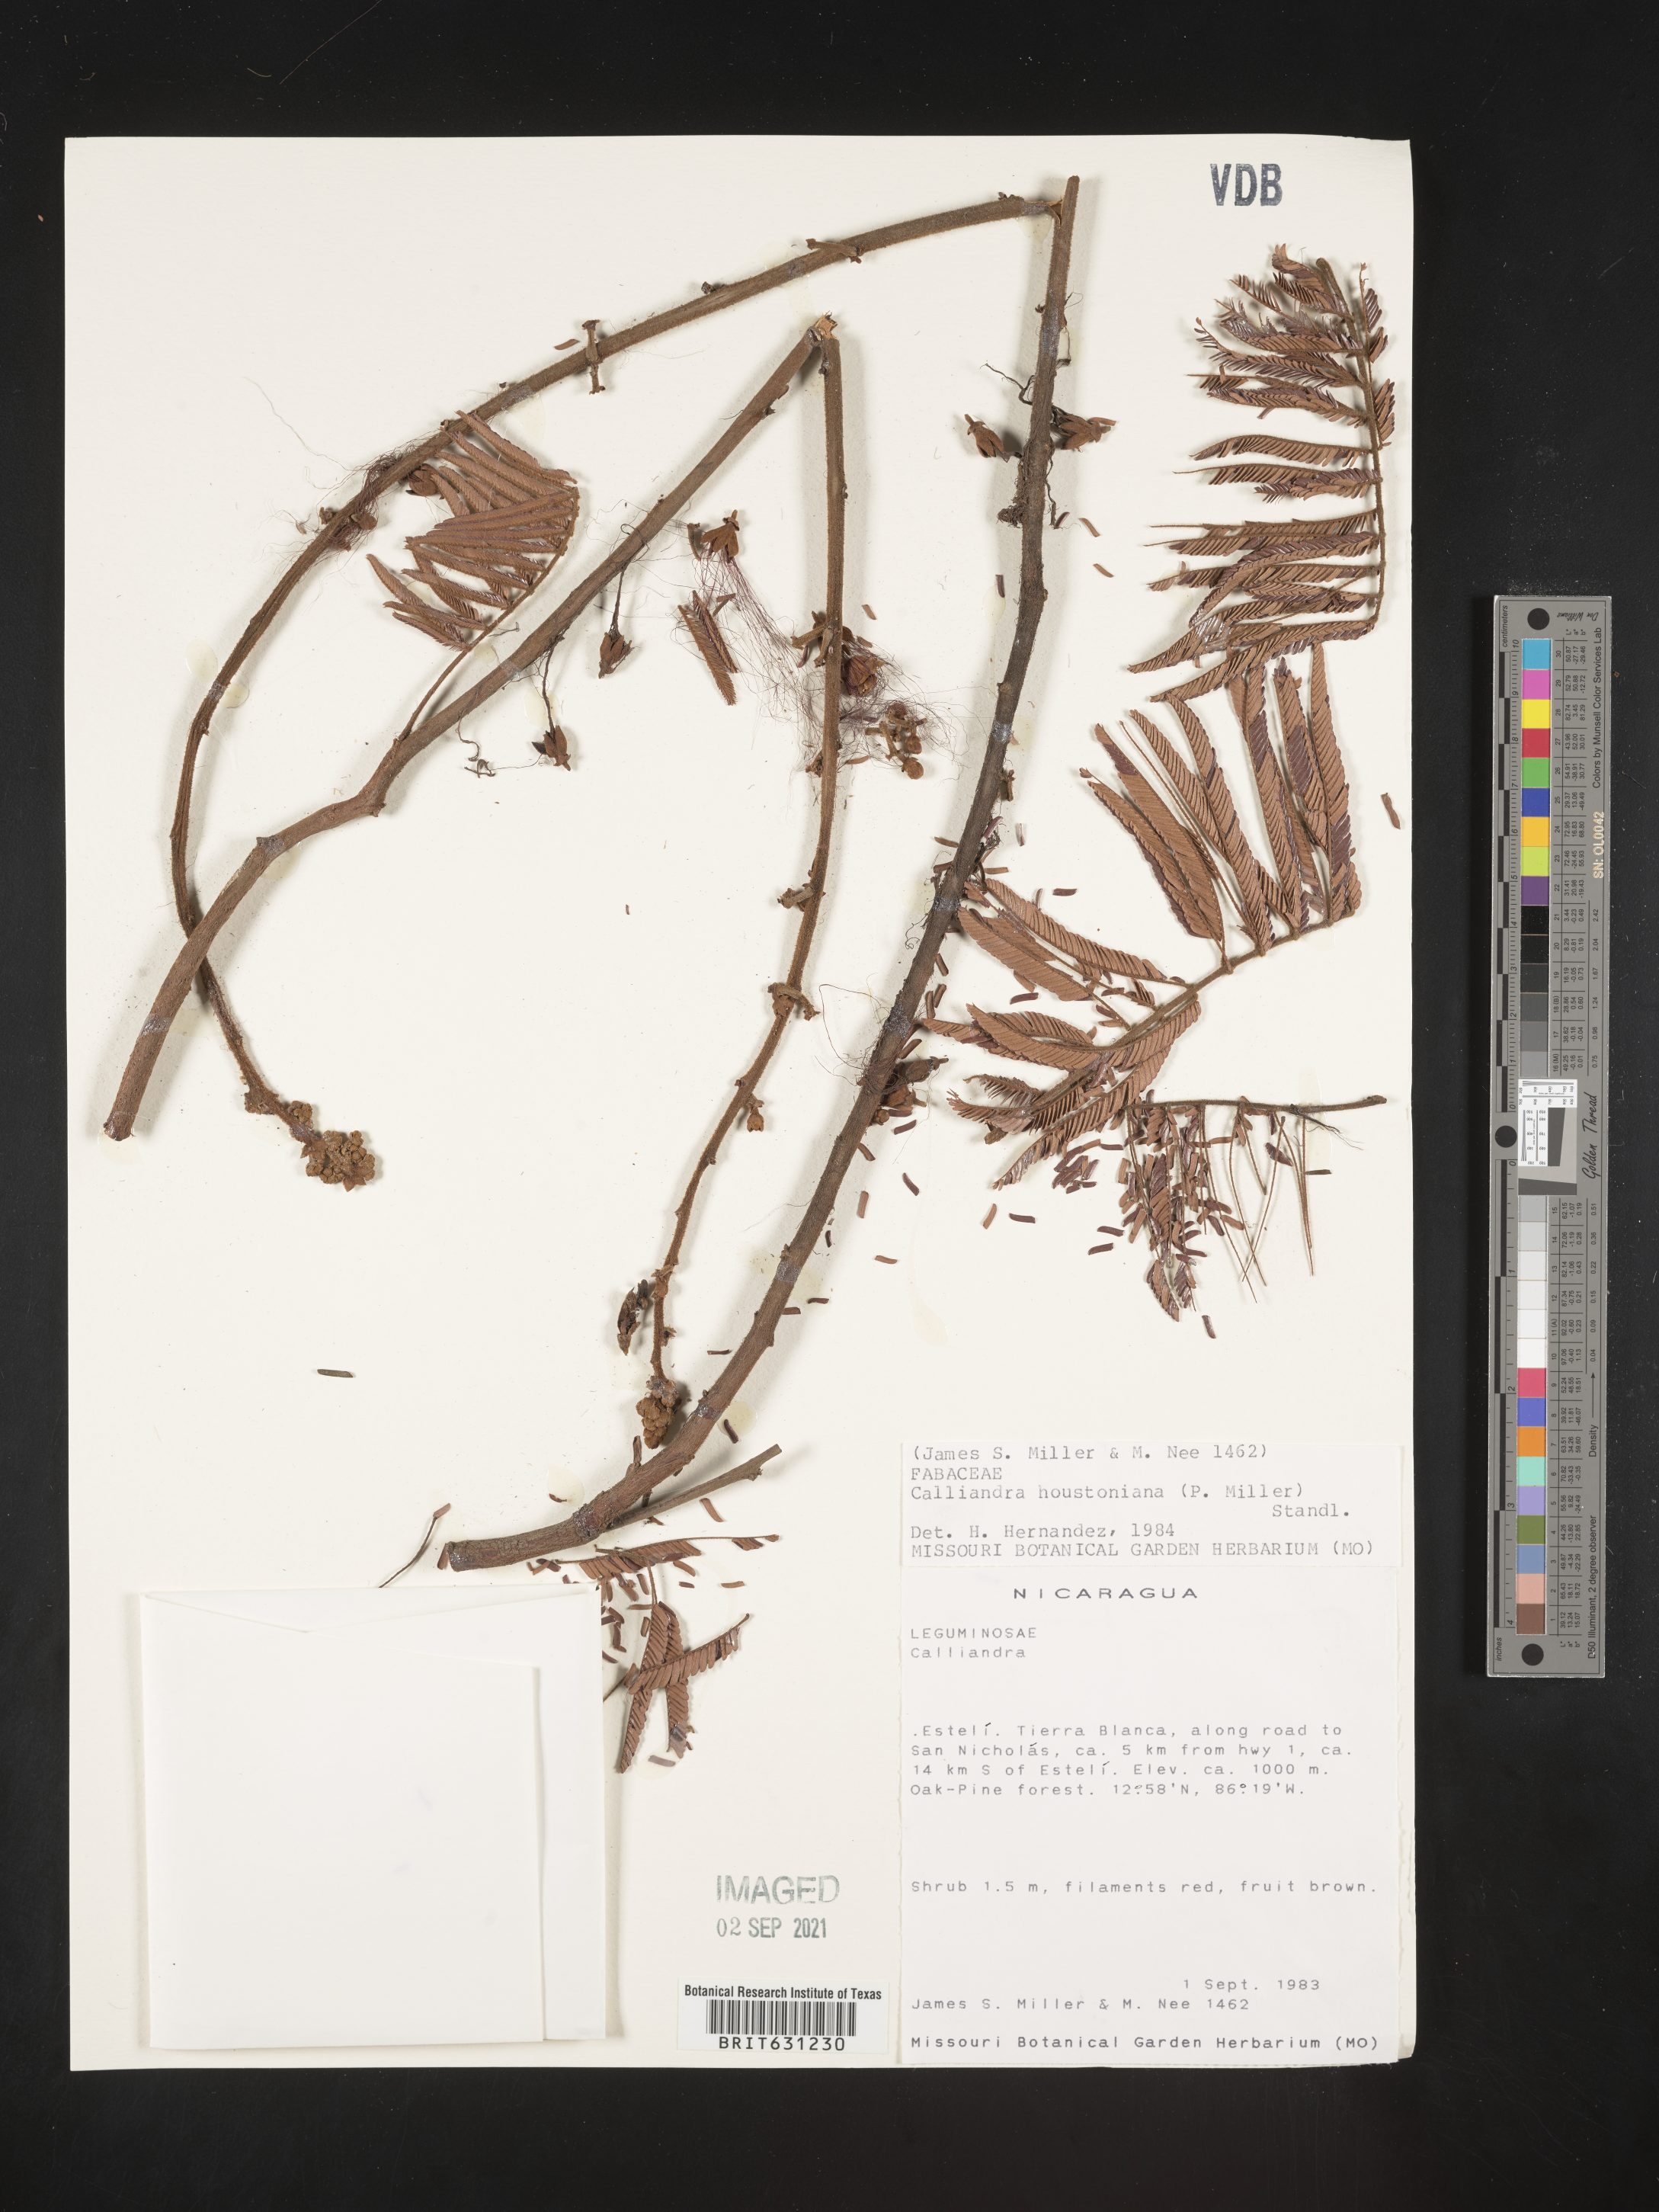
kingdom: Plantae
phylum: Tracheophyta
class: Magnoliopsida
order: Fabales
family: Fabaceae
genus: Calliandra
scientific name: Calliandra houstoniana
